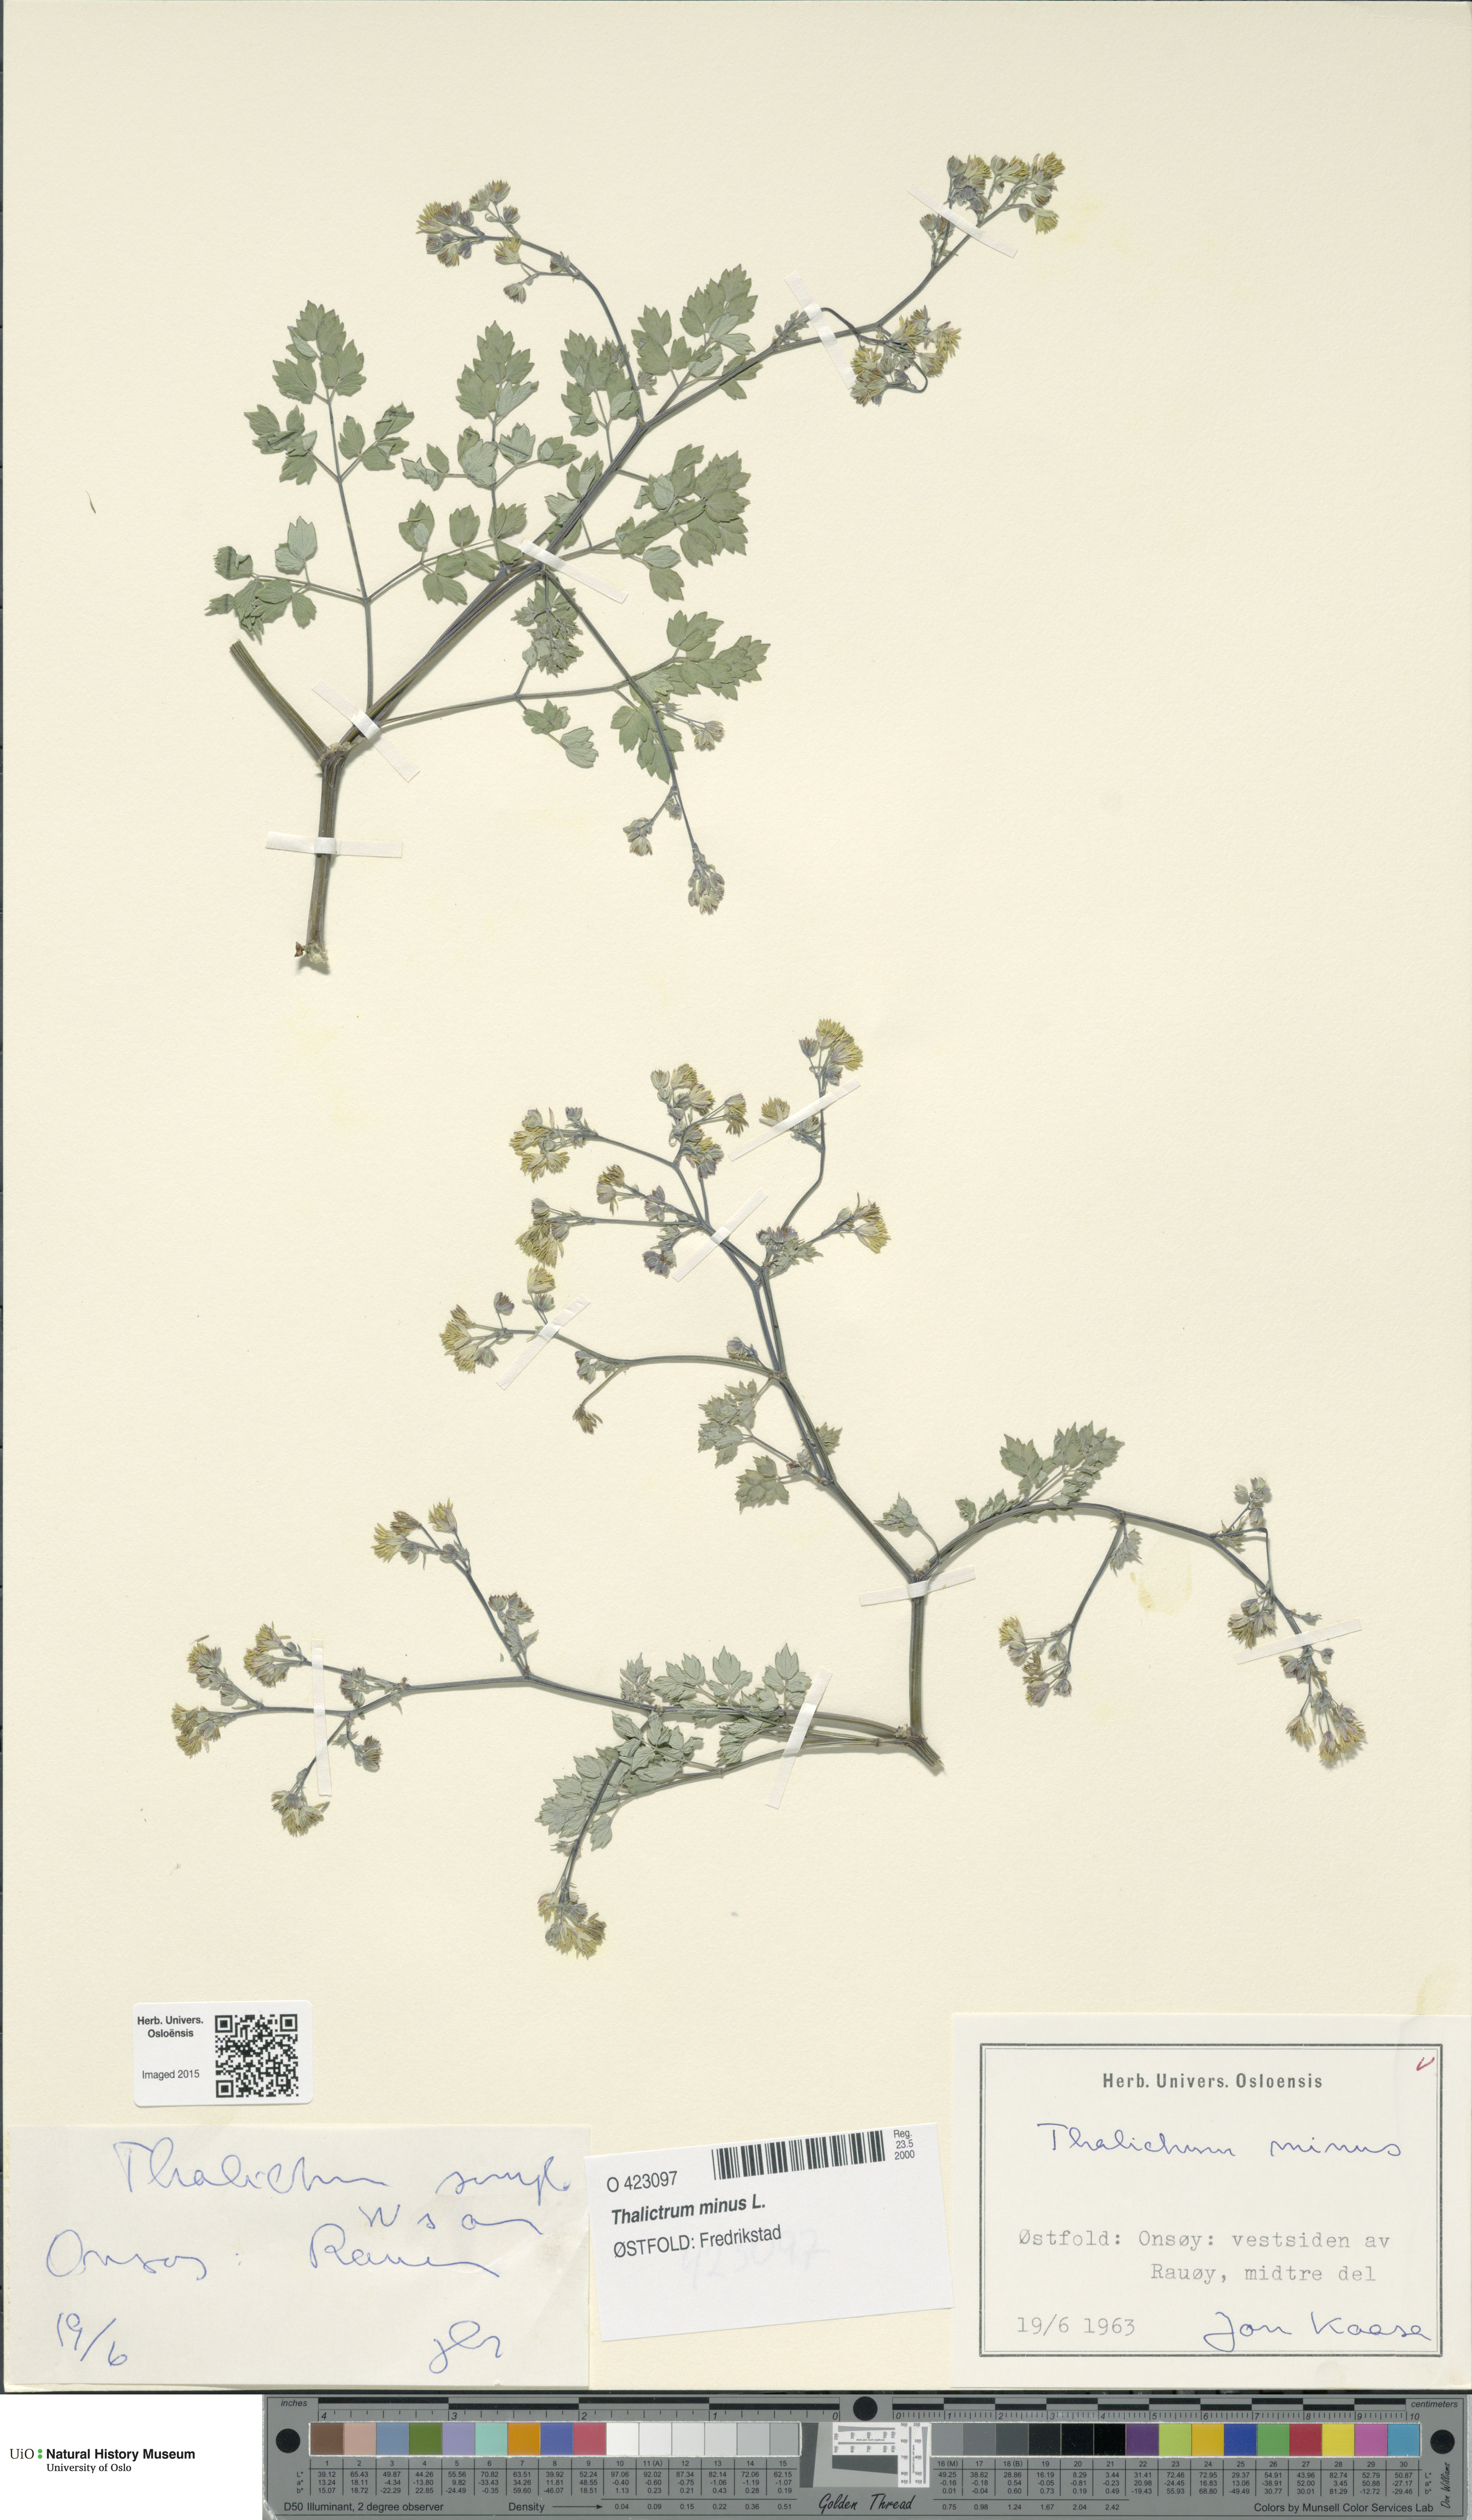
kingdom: Plantae
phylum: Tracheophyta
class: Magnoliopsida
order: Ranunculales
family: Ranunculaceae
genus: Thalictrum
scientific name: Thalictrum minus
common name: Lesser meadow-rue
